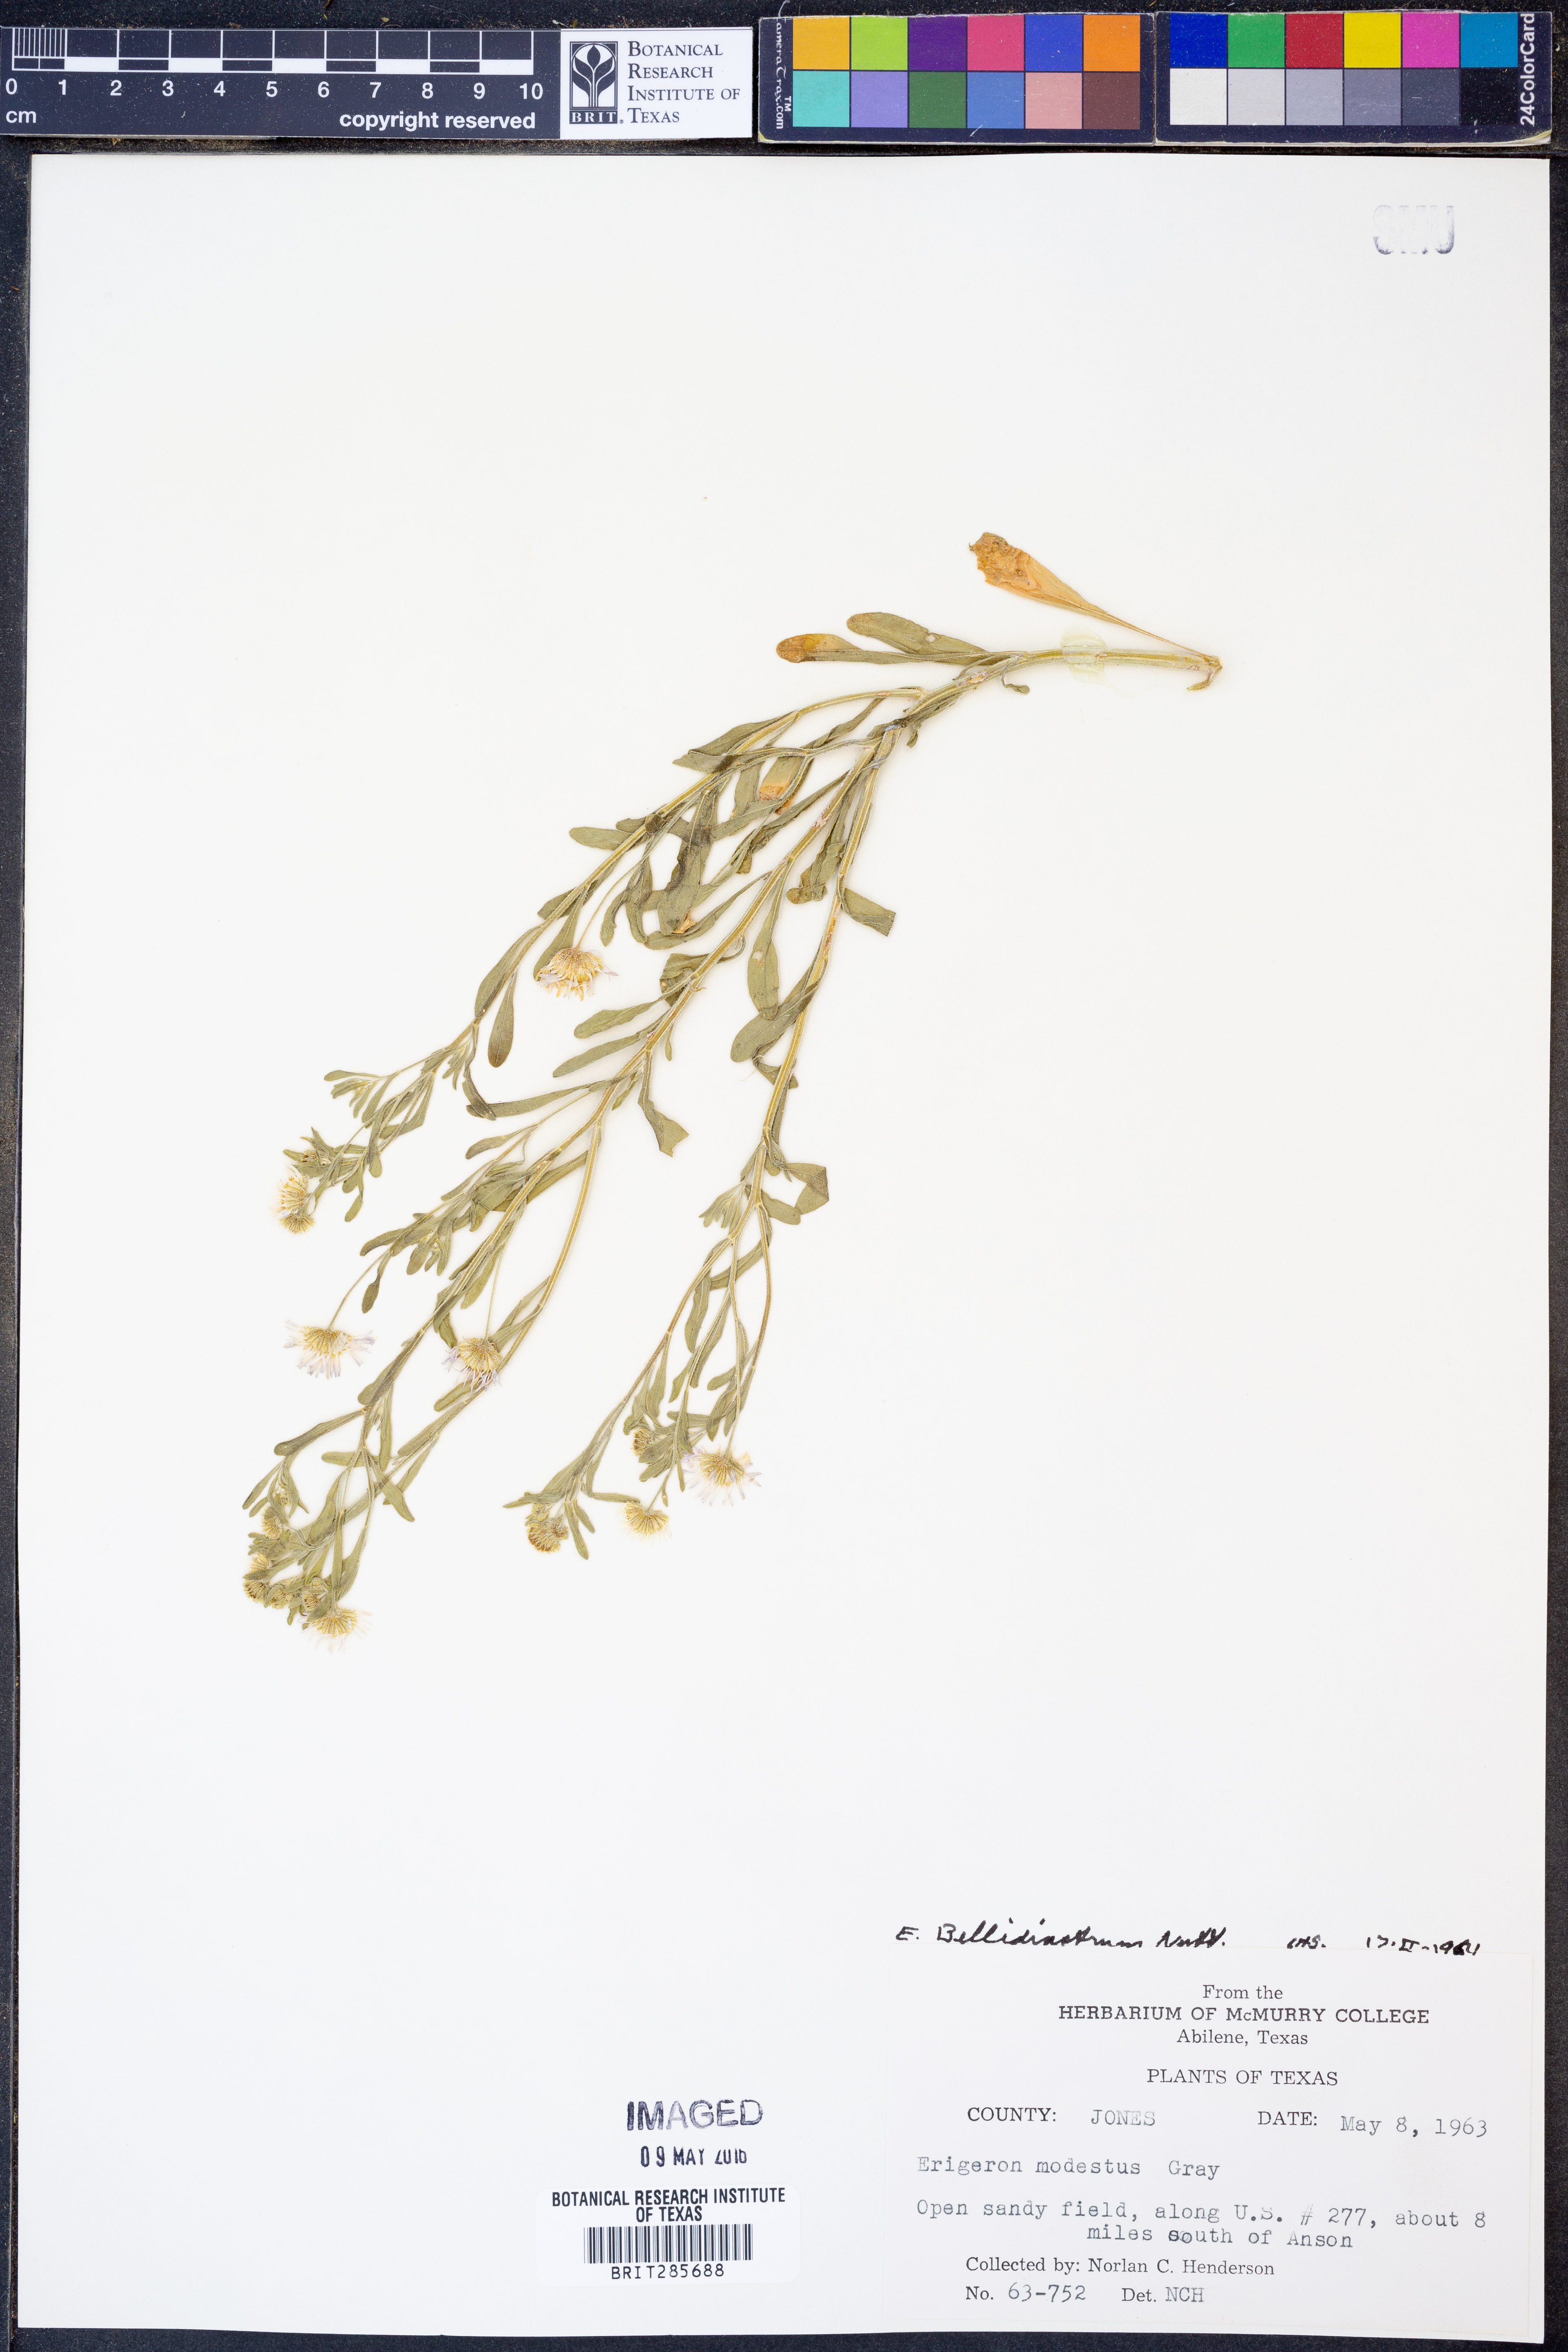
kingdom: Plantae
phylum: Tracheophyta
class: Magnoliopsida
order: Asterales
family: Asteraceae
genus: Erigeron
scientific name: Erigeron bellidiastrum
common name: Sand fleabane
